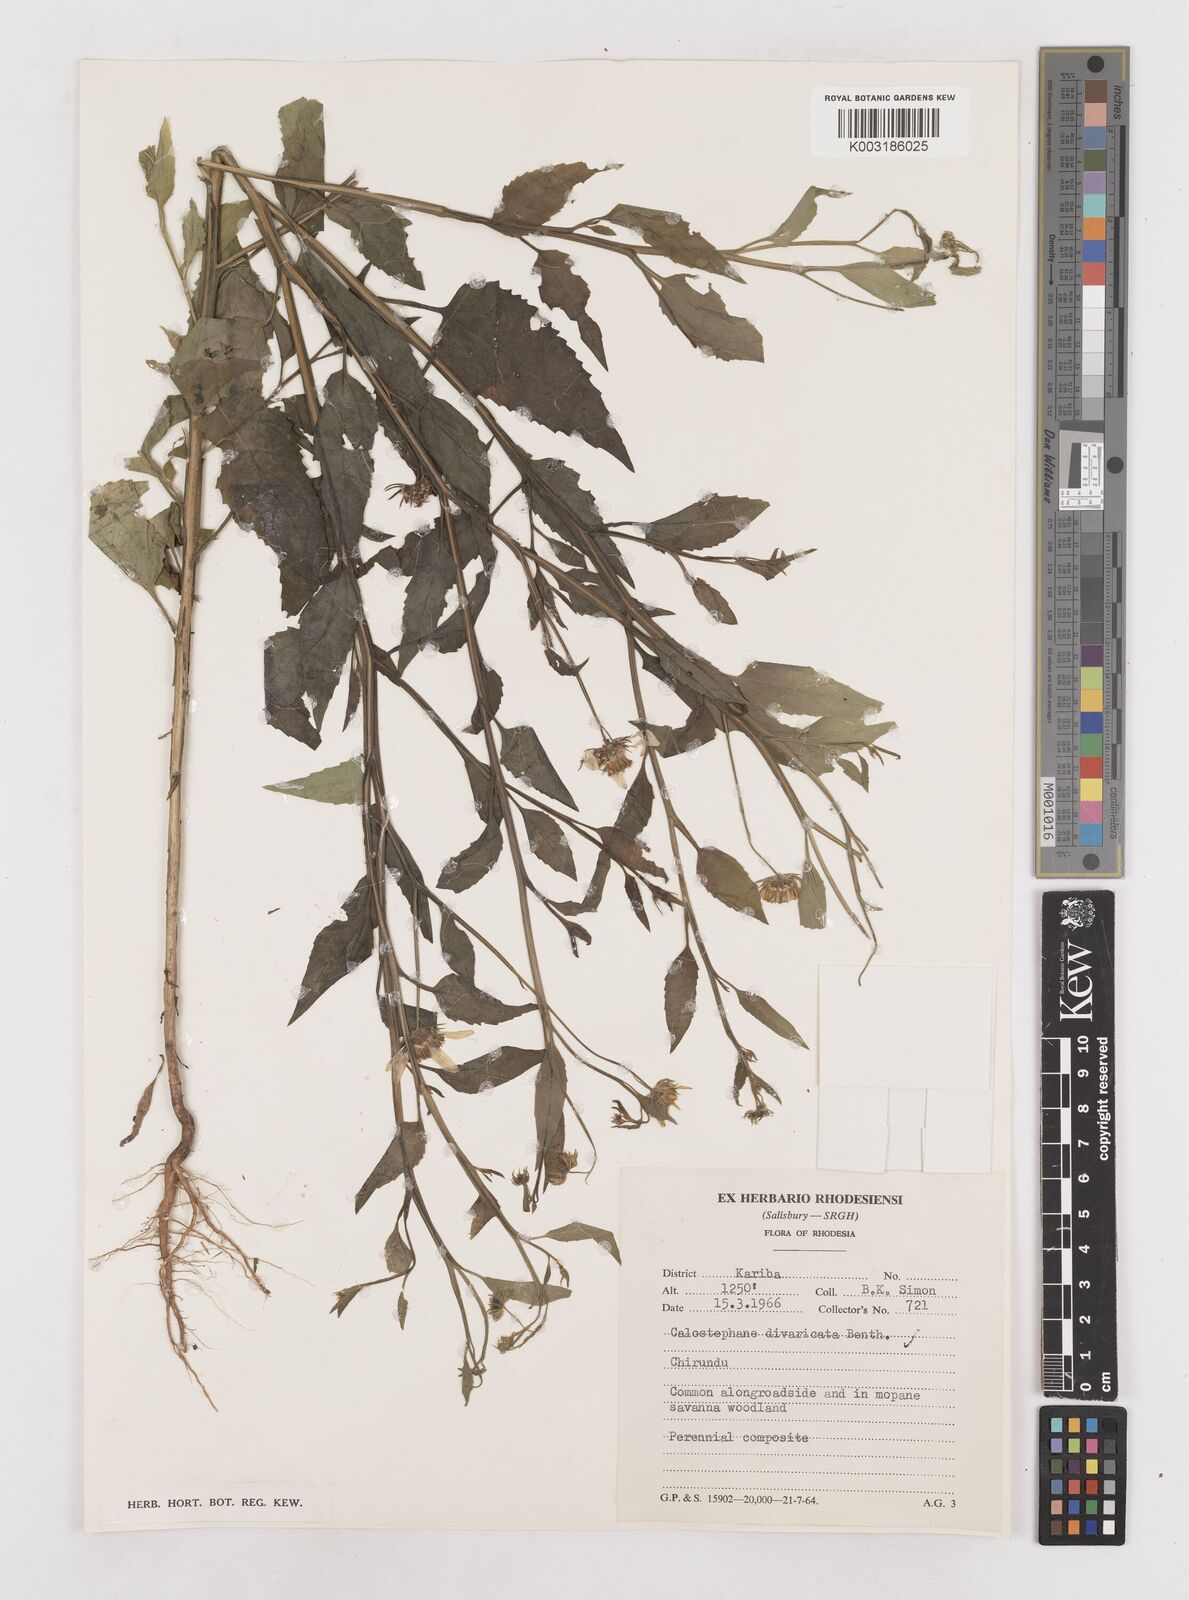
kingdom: Plantae
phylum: Tracheophyta
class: Magnoliopsida
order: Asterales
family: Asteraceae
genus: Calostephane
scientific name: Calostephane divaricata
